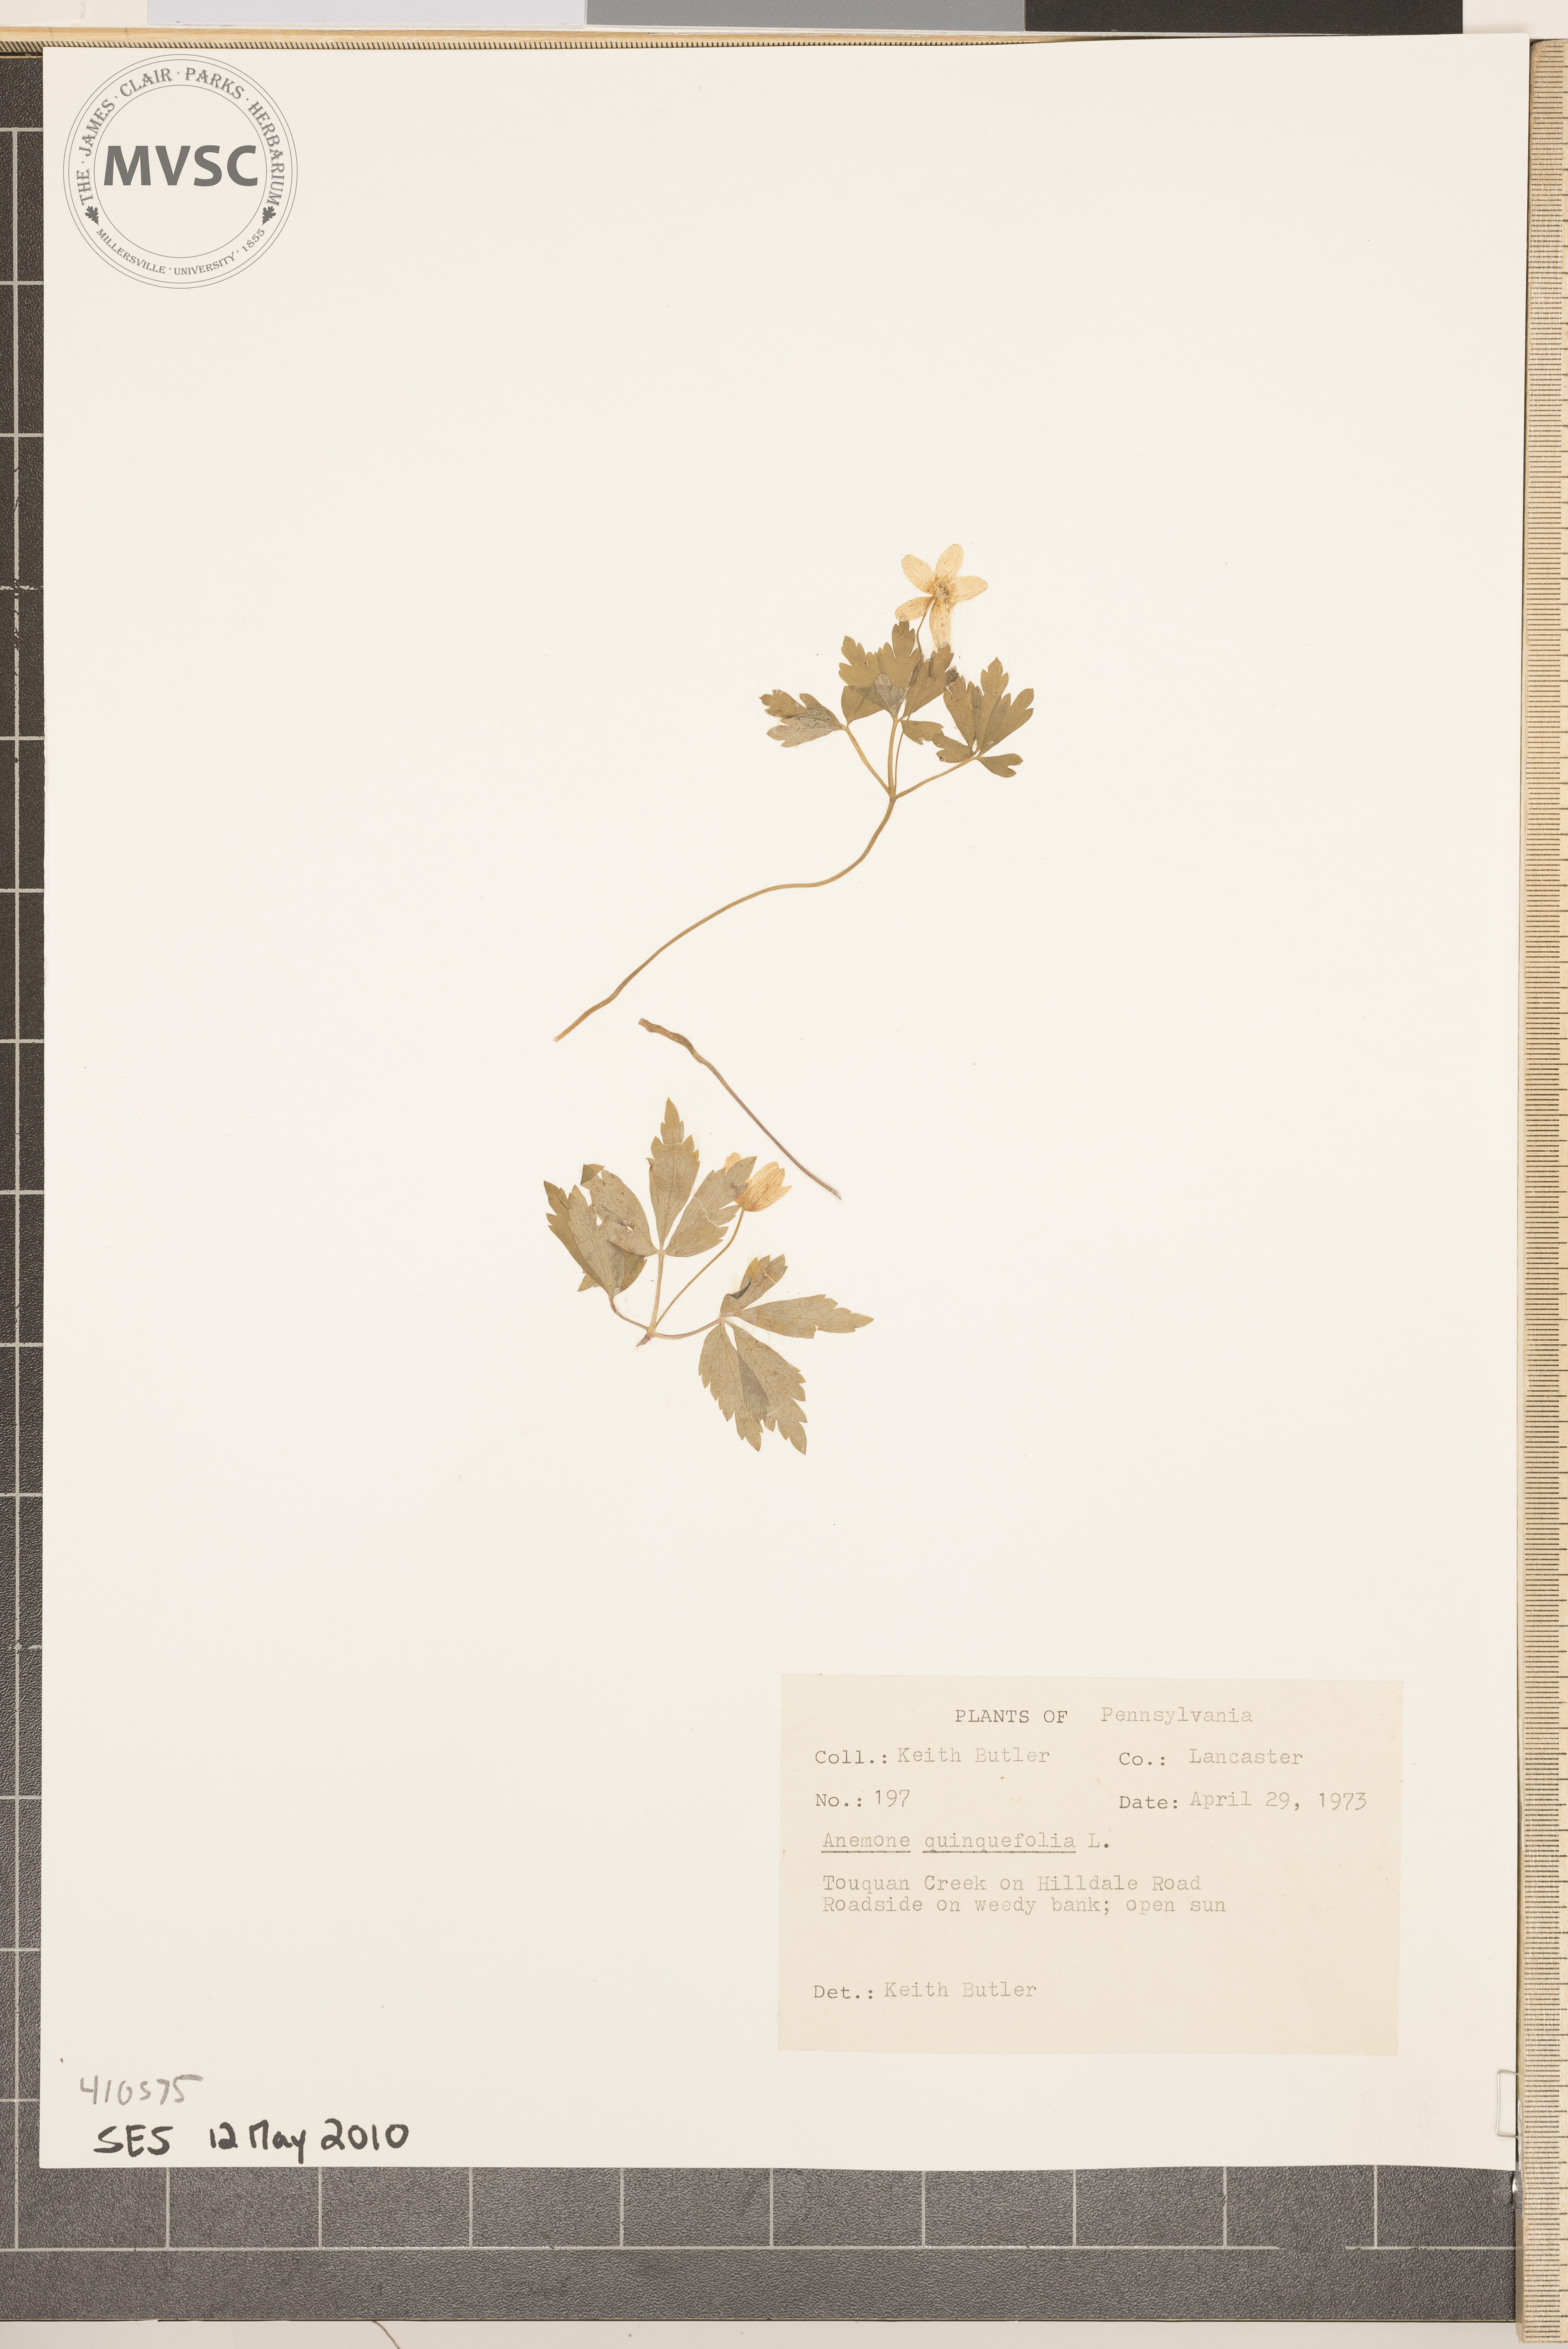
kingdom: Plantae
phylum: Tracheophyta
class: Magnoliopsida
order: Ranunculales
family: Ranunculaceae
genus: Anemone
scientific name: Anemone quinquefolia
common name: Wood anemone
